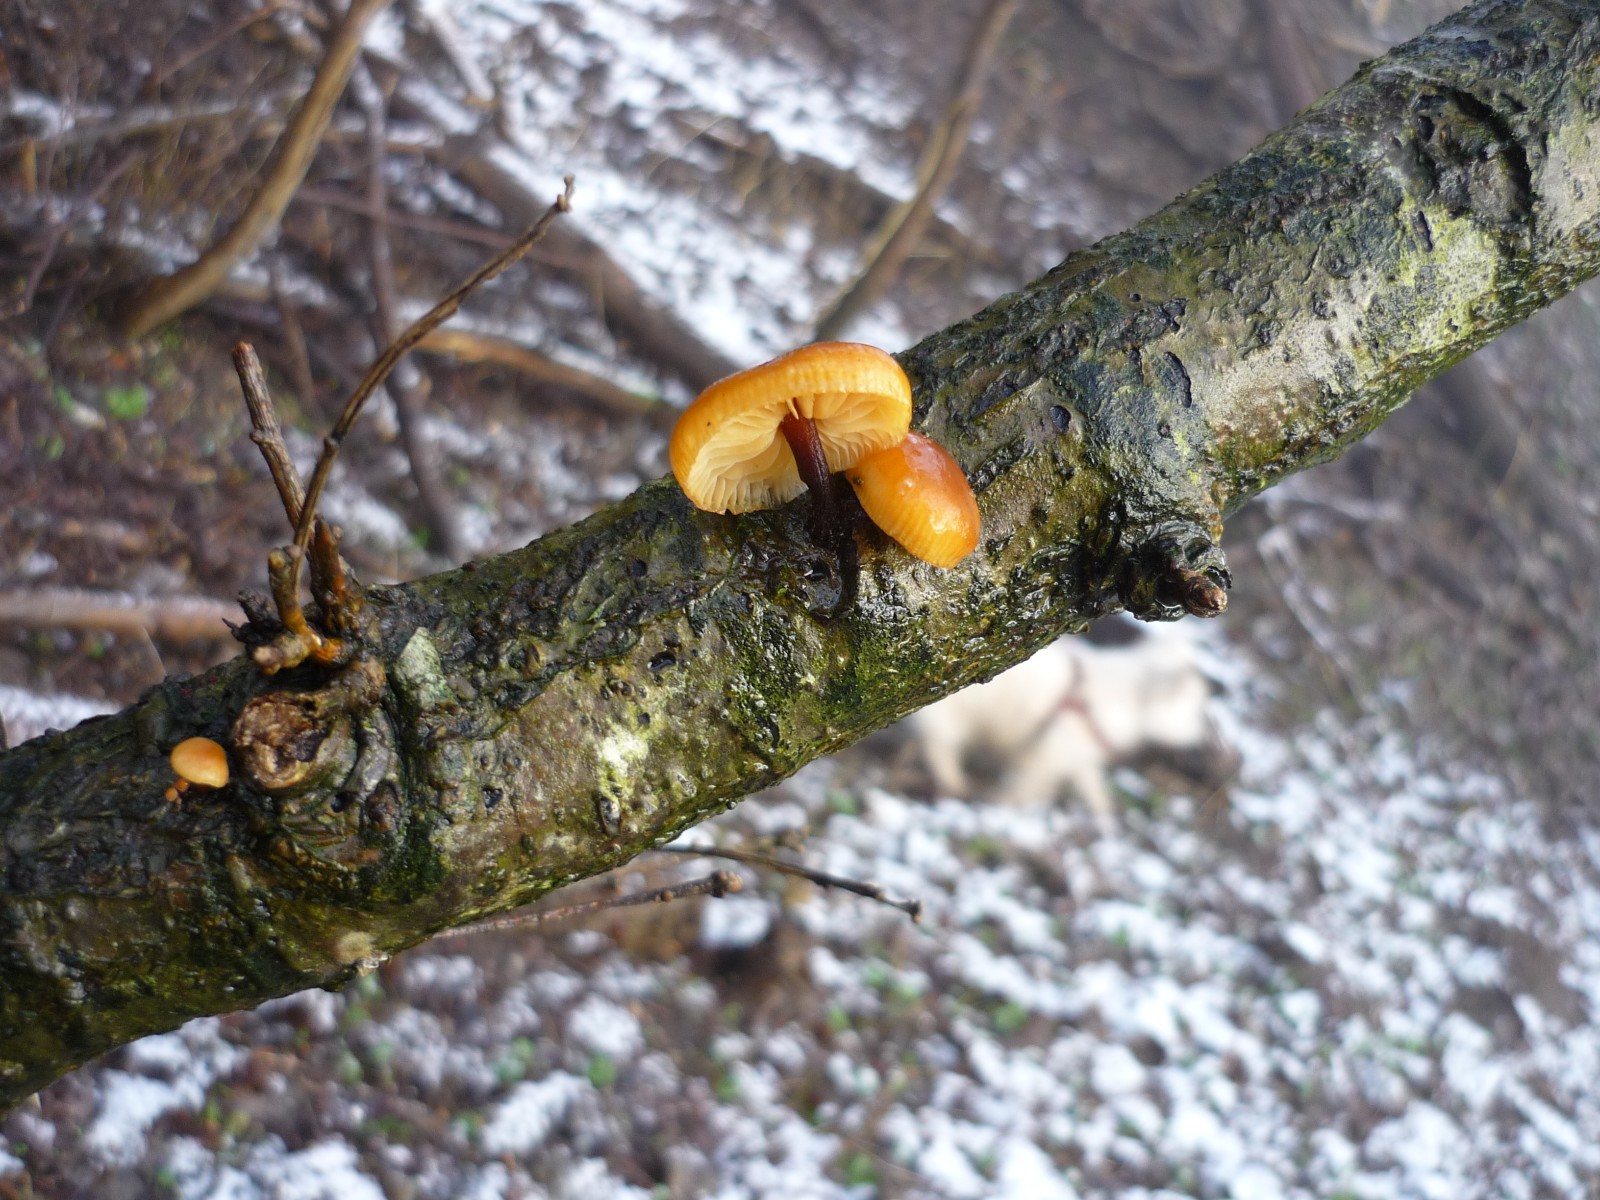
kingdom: Fungi
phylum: Basidiomycota
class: Agaricomycetes
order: Agaricales
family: Physalacriaceae
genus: Flammulina
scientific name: Flammulina velutipes
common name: gul fløjlsfod
